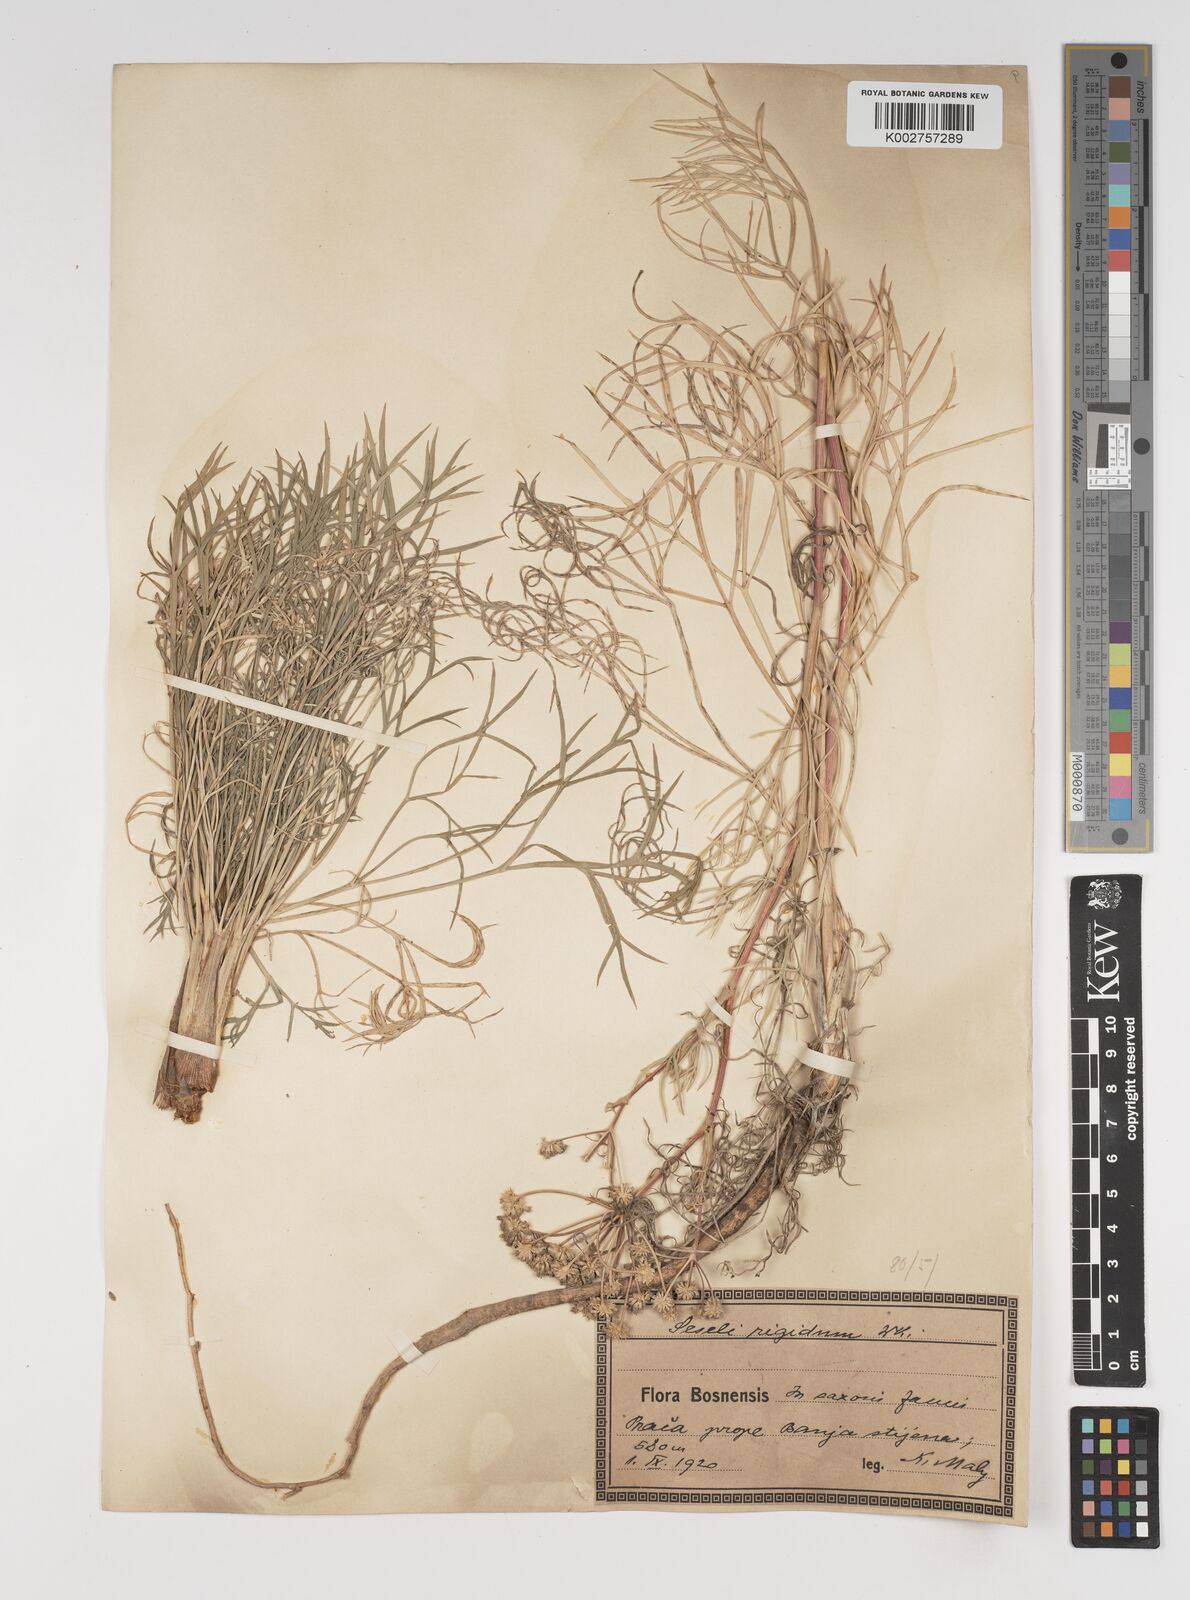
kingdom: Plantae
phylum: Tracheophyta
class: Magnoliopsida
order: Apiales
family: Apiaceae
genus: Seseli
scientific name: Seseli rigidum
